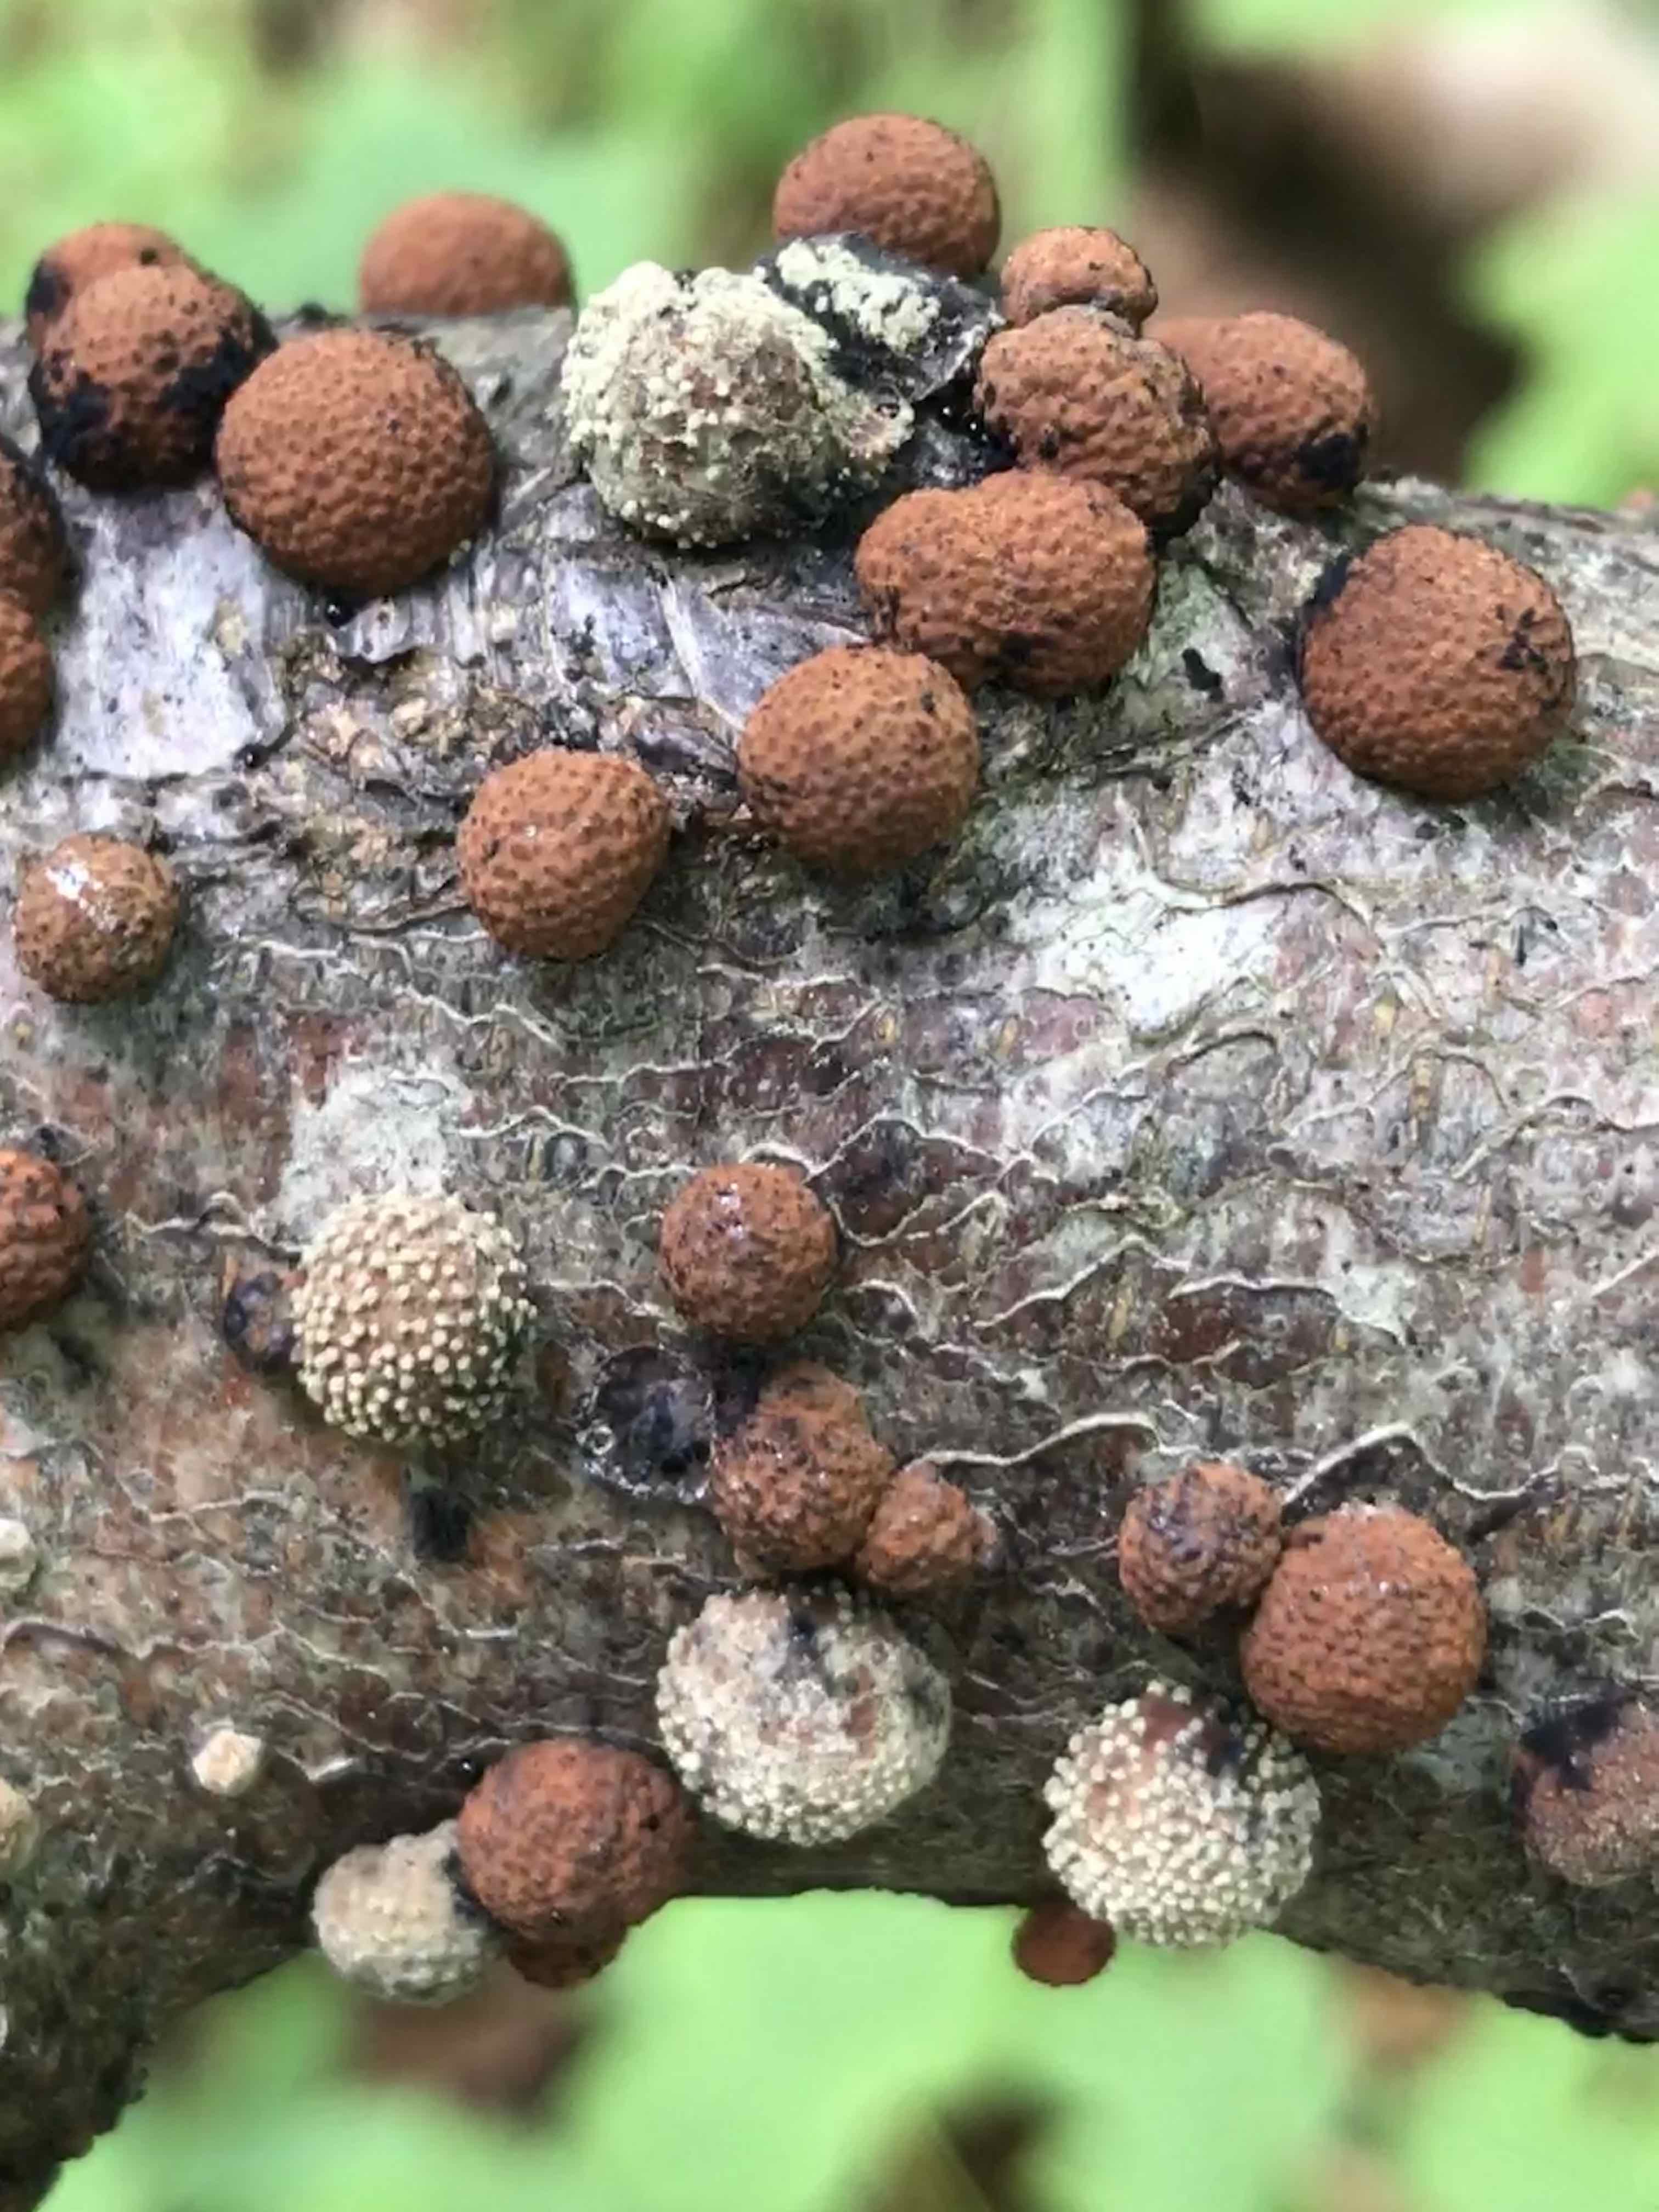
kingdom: Fungi
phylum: Ascomycota
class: Sordariomycetes
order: Xylariales
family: Hypoxylaceae
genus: Hypoxylon
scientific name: Hypoxylon fragiforme
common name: kuljordbær
